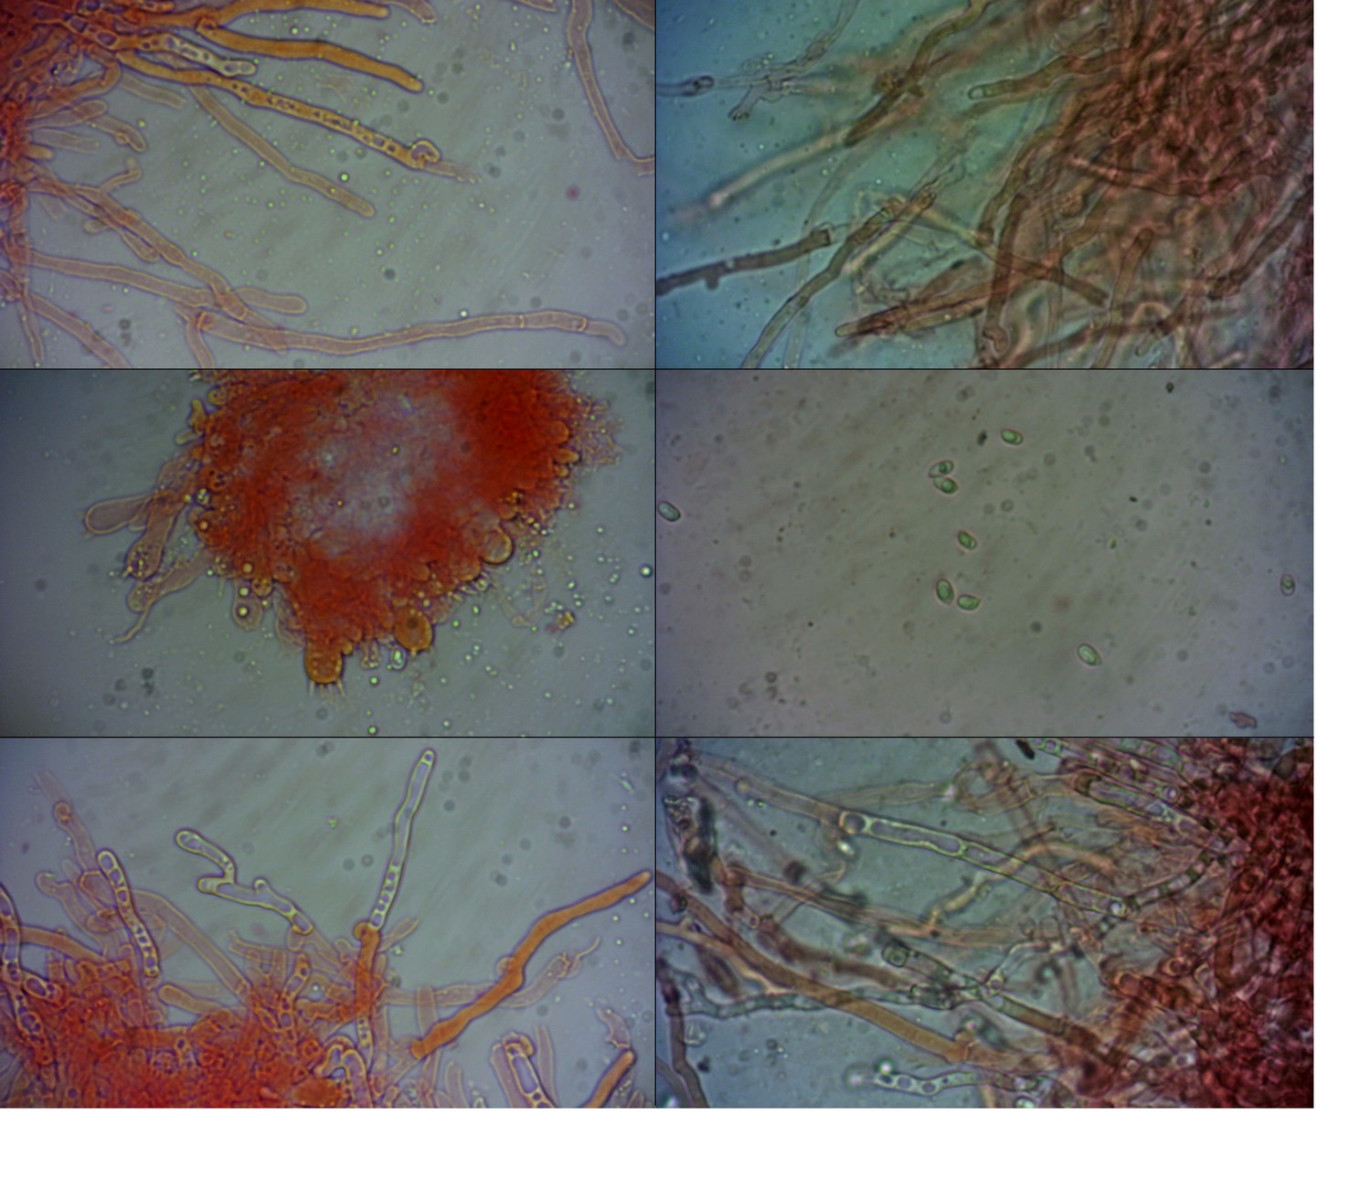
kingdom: Fungi
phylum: Basidiomycota
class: Agaricomycetes
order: Polyporales
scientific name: Polyporales
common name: poresvampordenen
